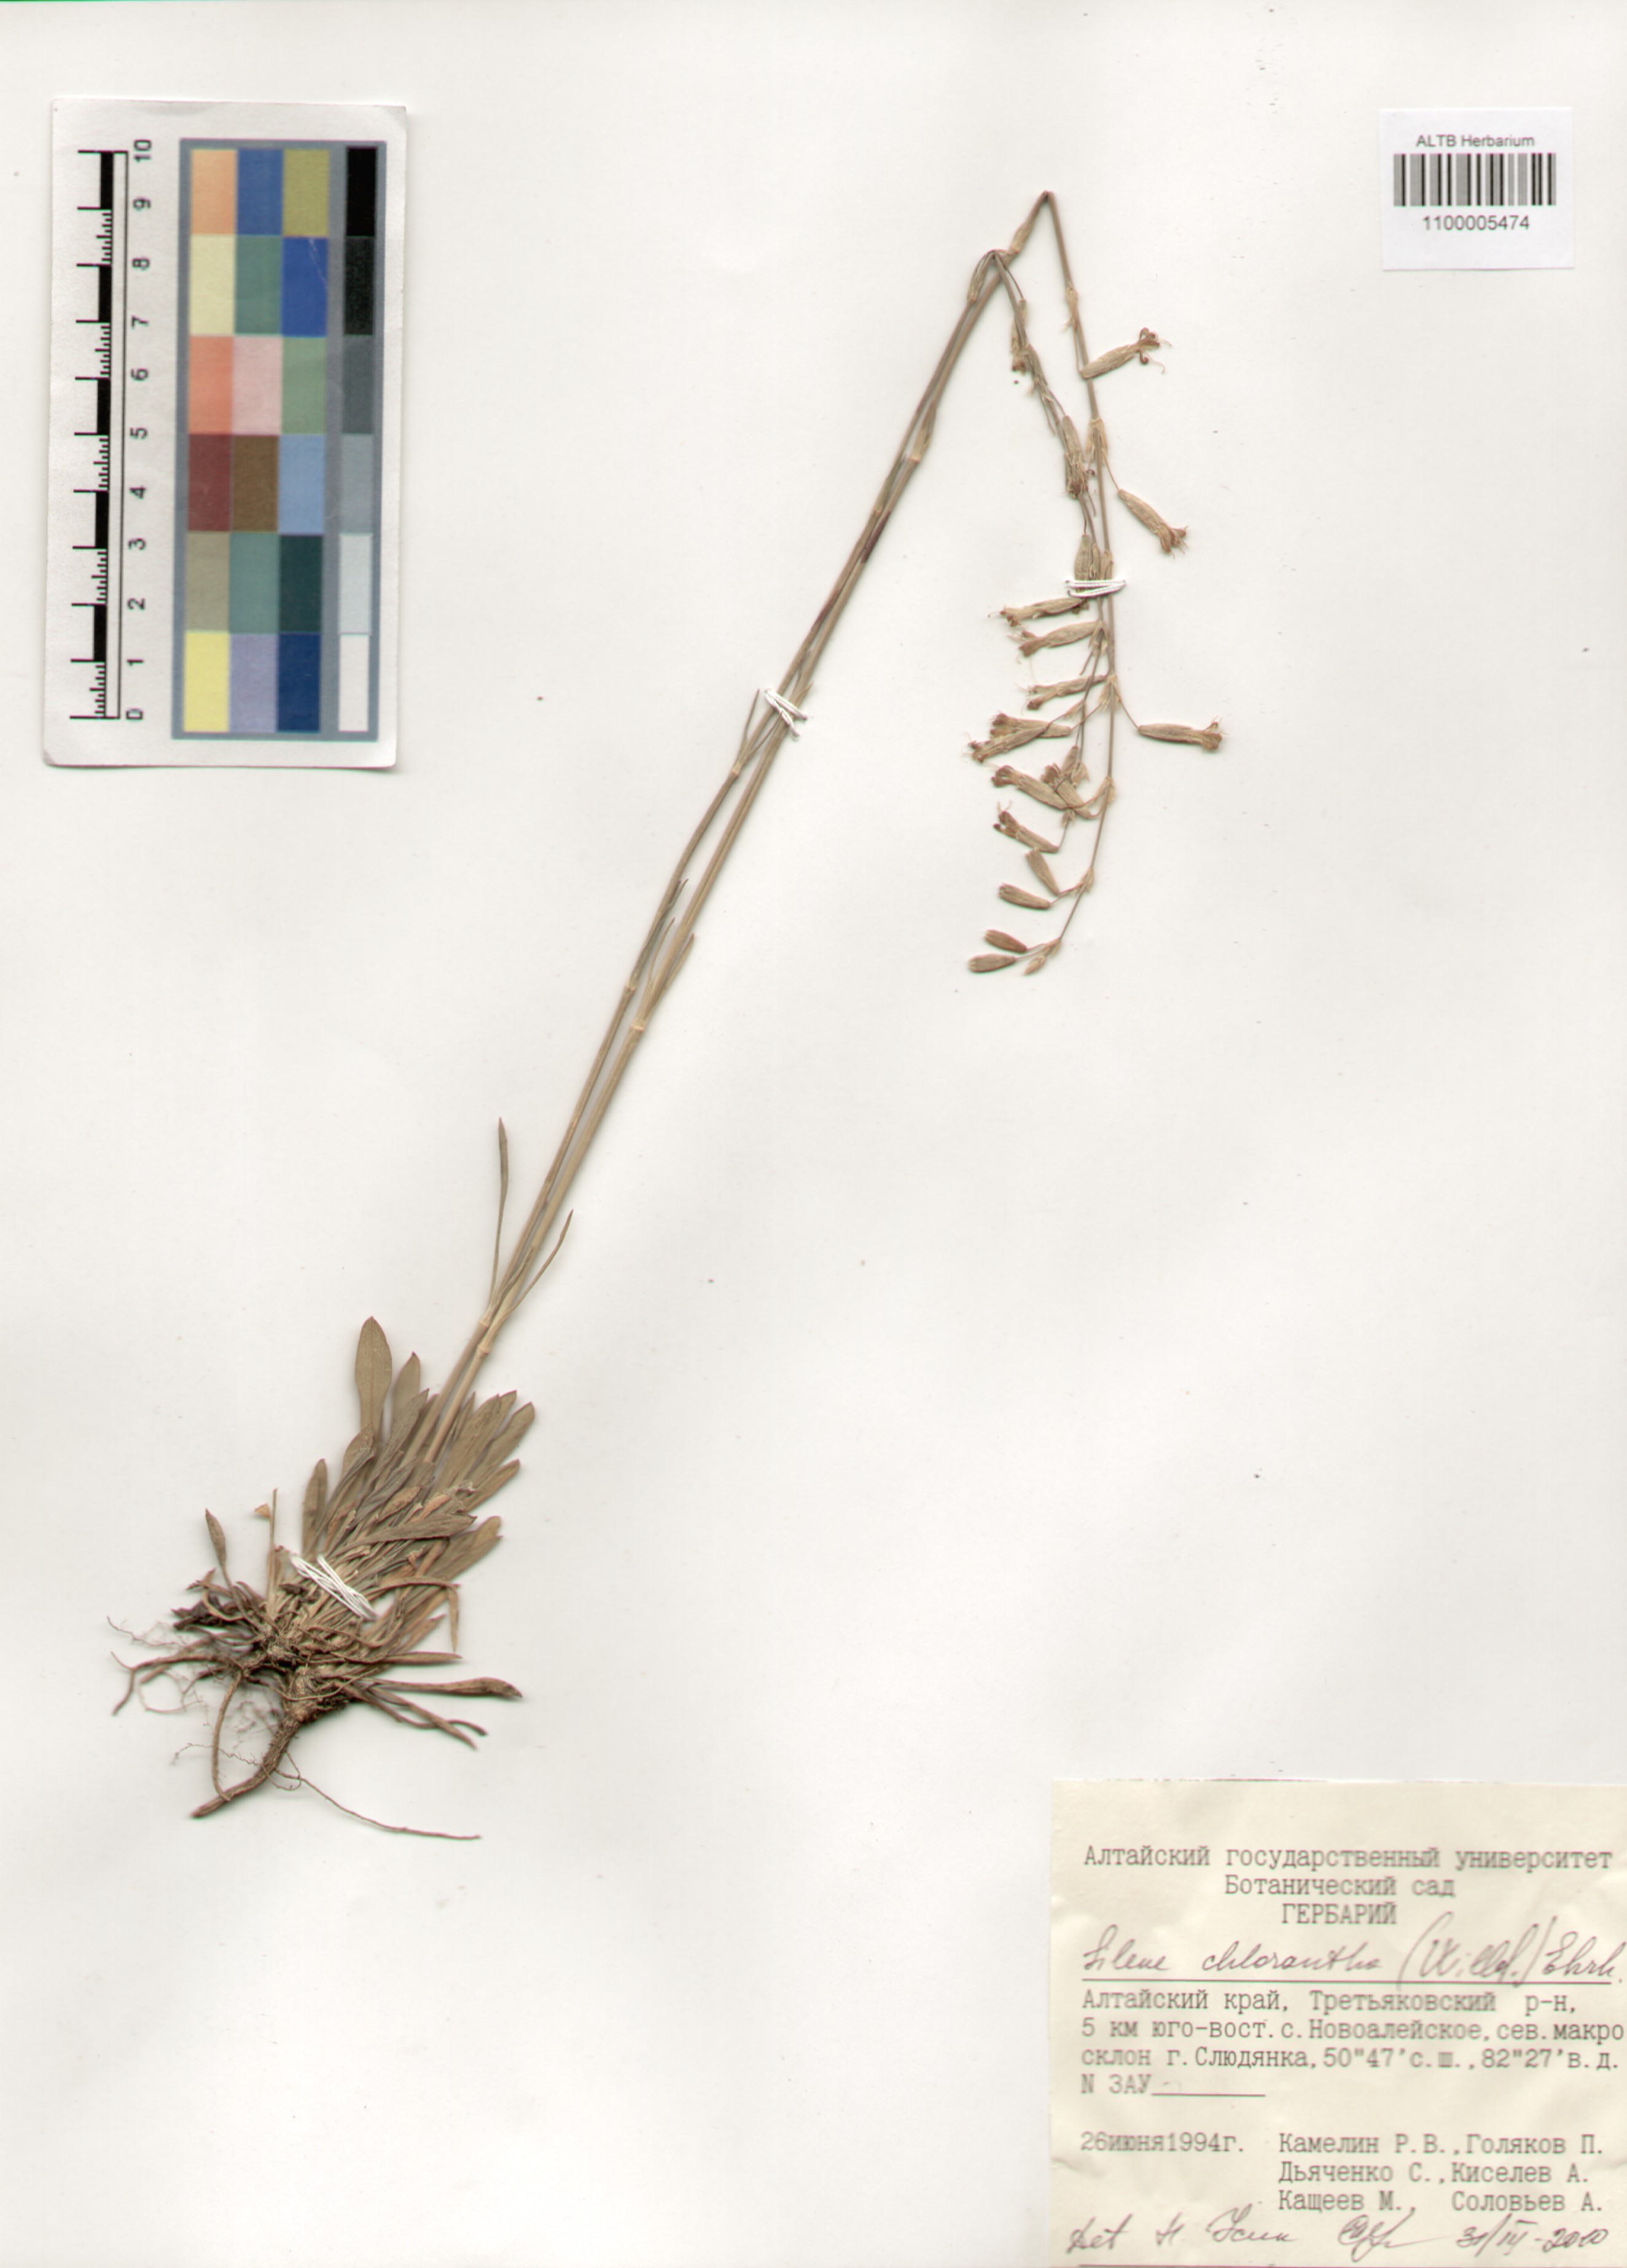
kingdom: Plantae
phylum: Tracheophyta
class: Magnoliopsida
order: Caryophyllales
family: Caryophyllaceae
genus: Silene
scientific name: Silene chlorantha
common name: Yellowgreen catchfly
